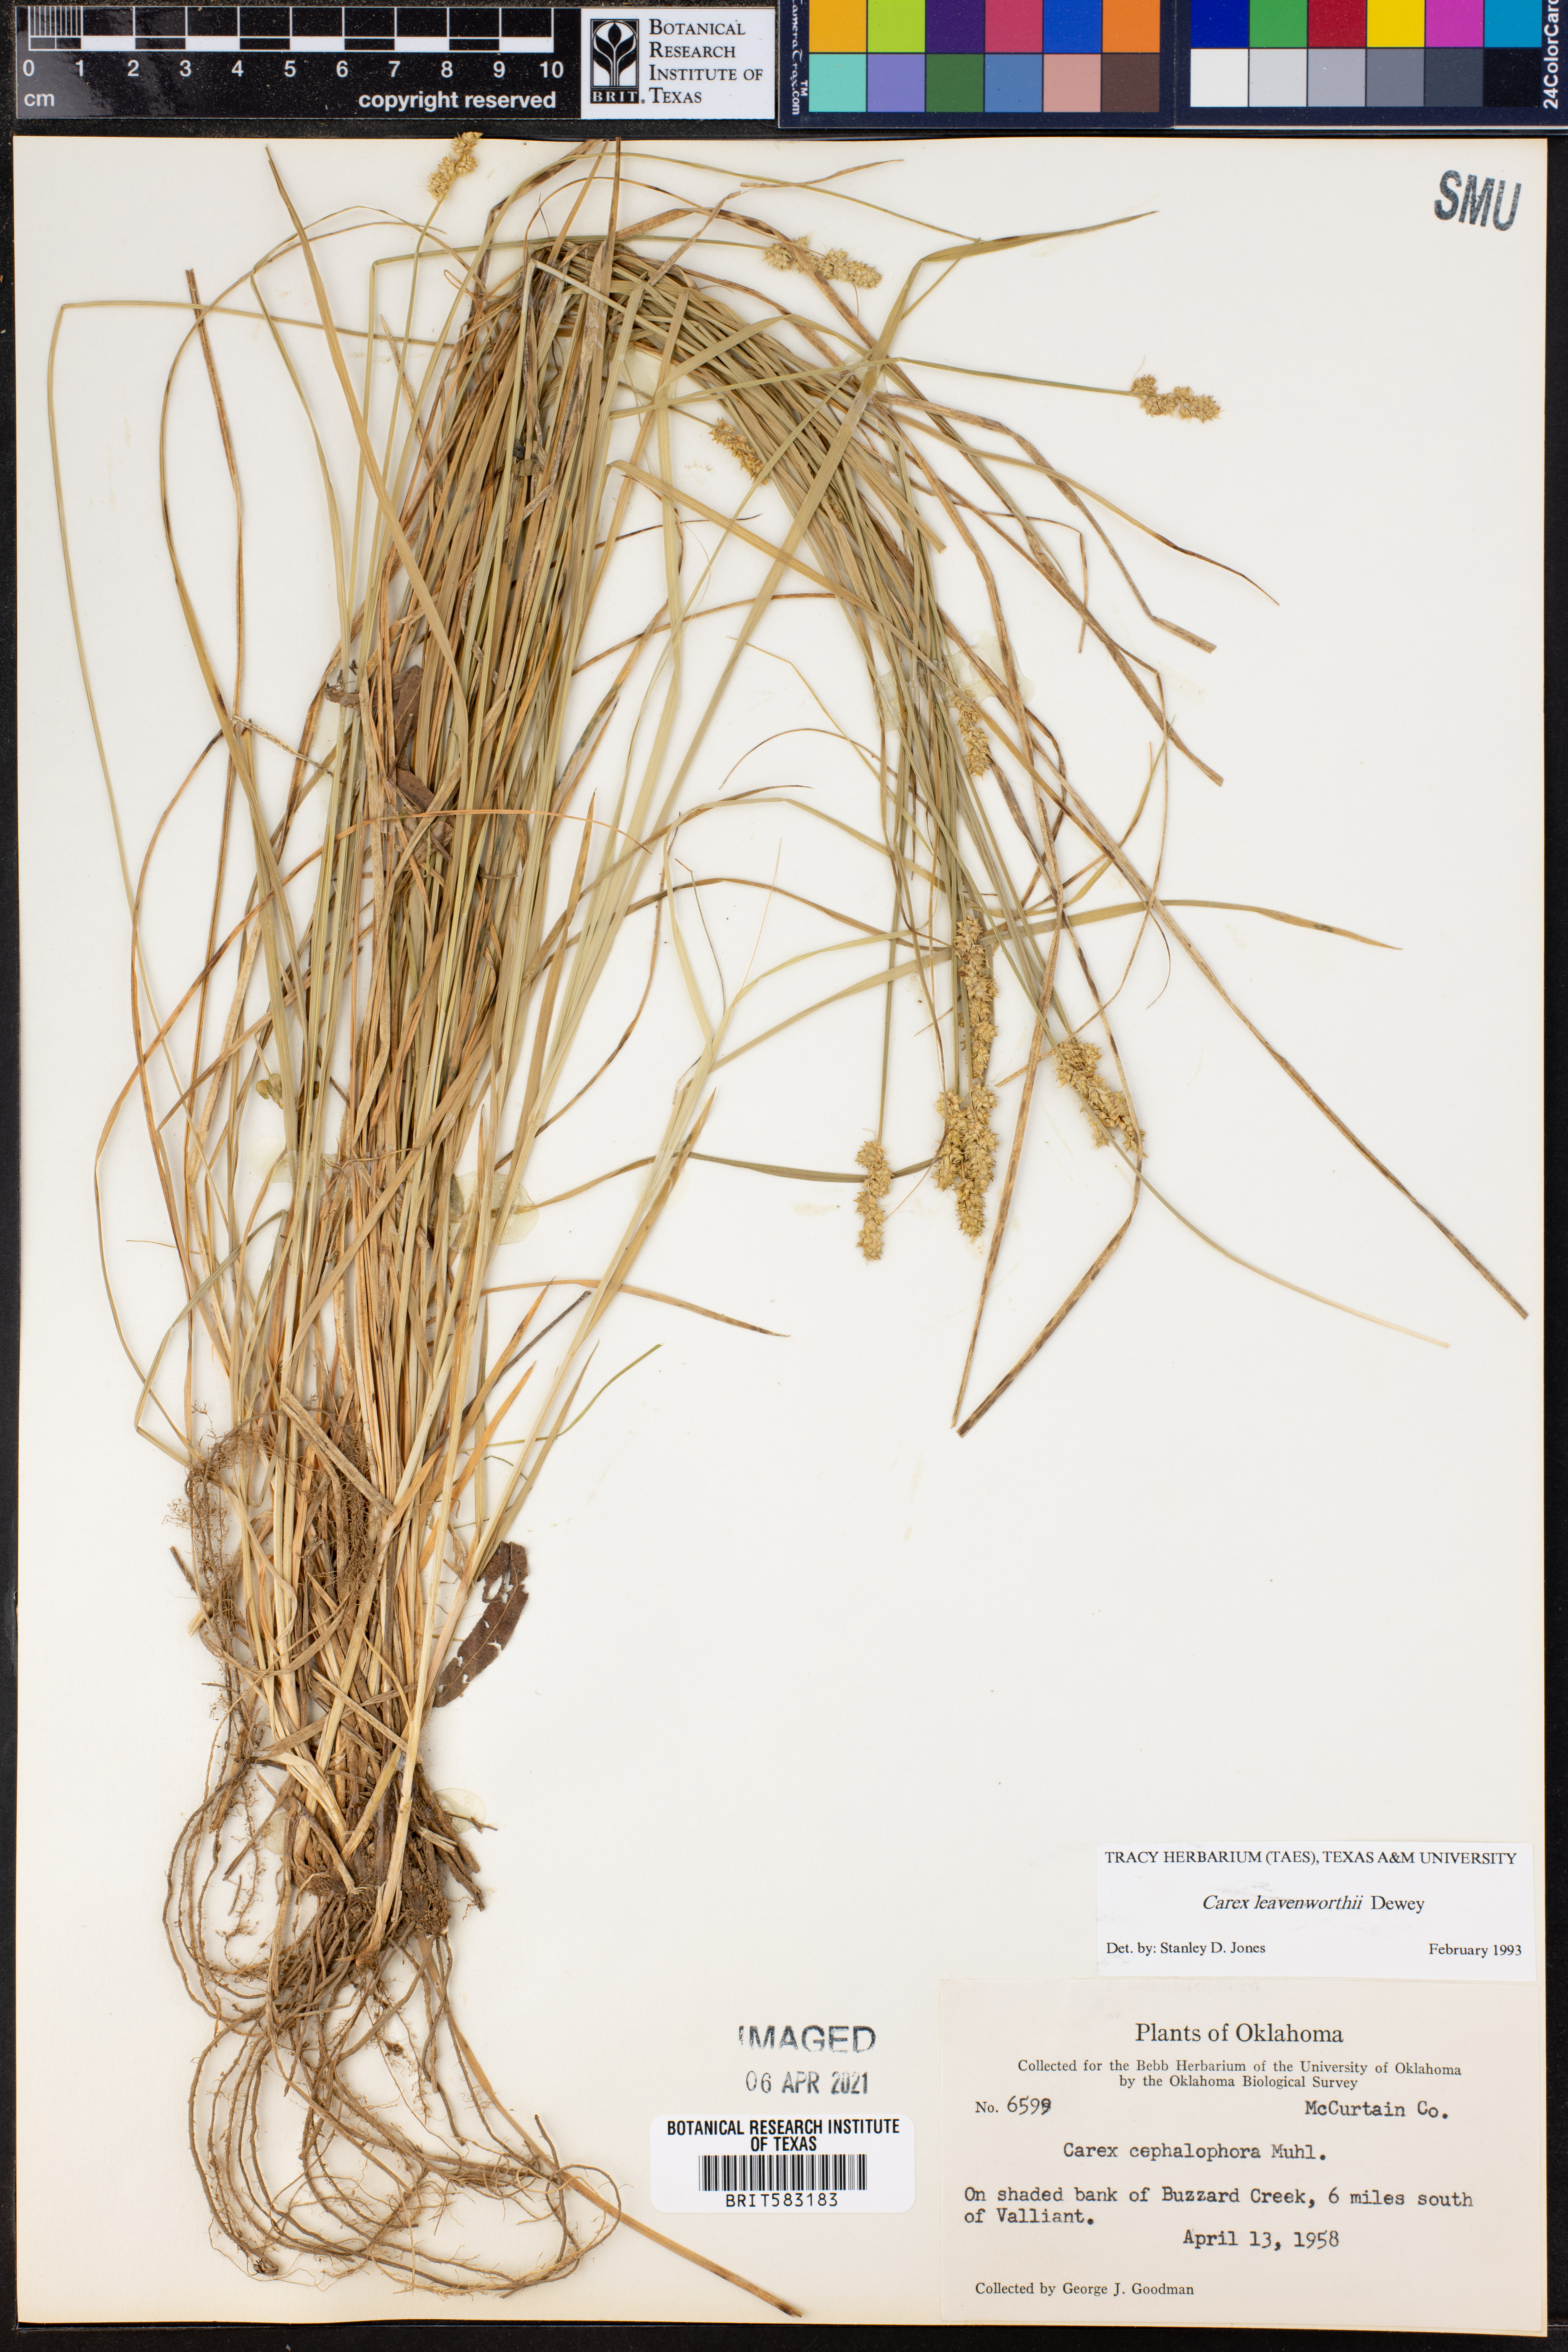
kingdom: Plantae
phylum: Tracheophyta
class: Liliopsida
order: Poales
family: Cyperaceae
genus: Carex
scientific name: Carex leavenworthii
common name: Leavenworth's bracted sedge
